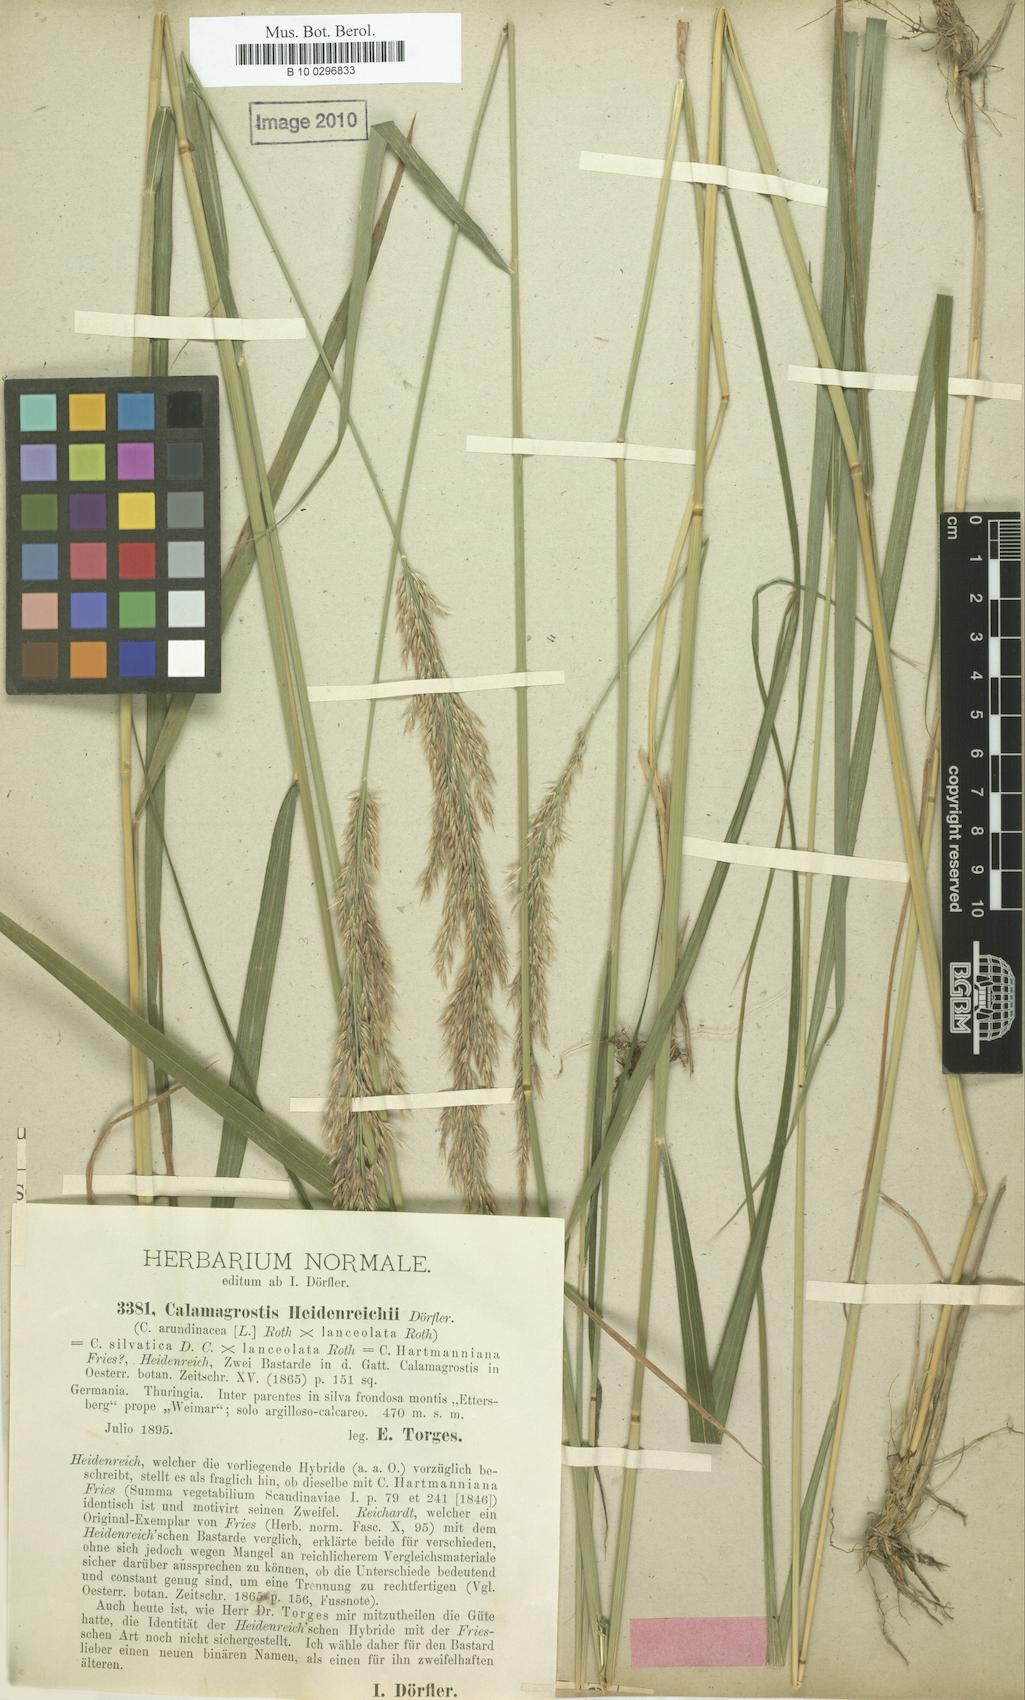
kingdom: Plantae
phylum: Tracheophyta
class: Liliopsida
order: Poales
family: Poaceae
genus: Calamagrostis
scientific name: Calamagrostis hartmaniana
